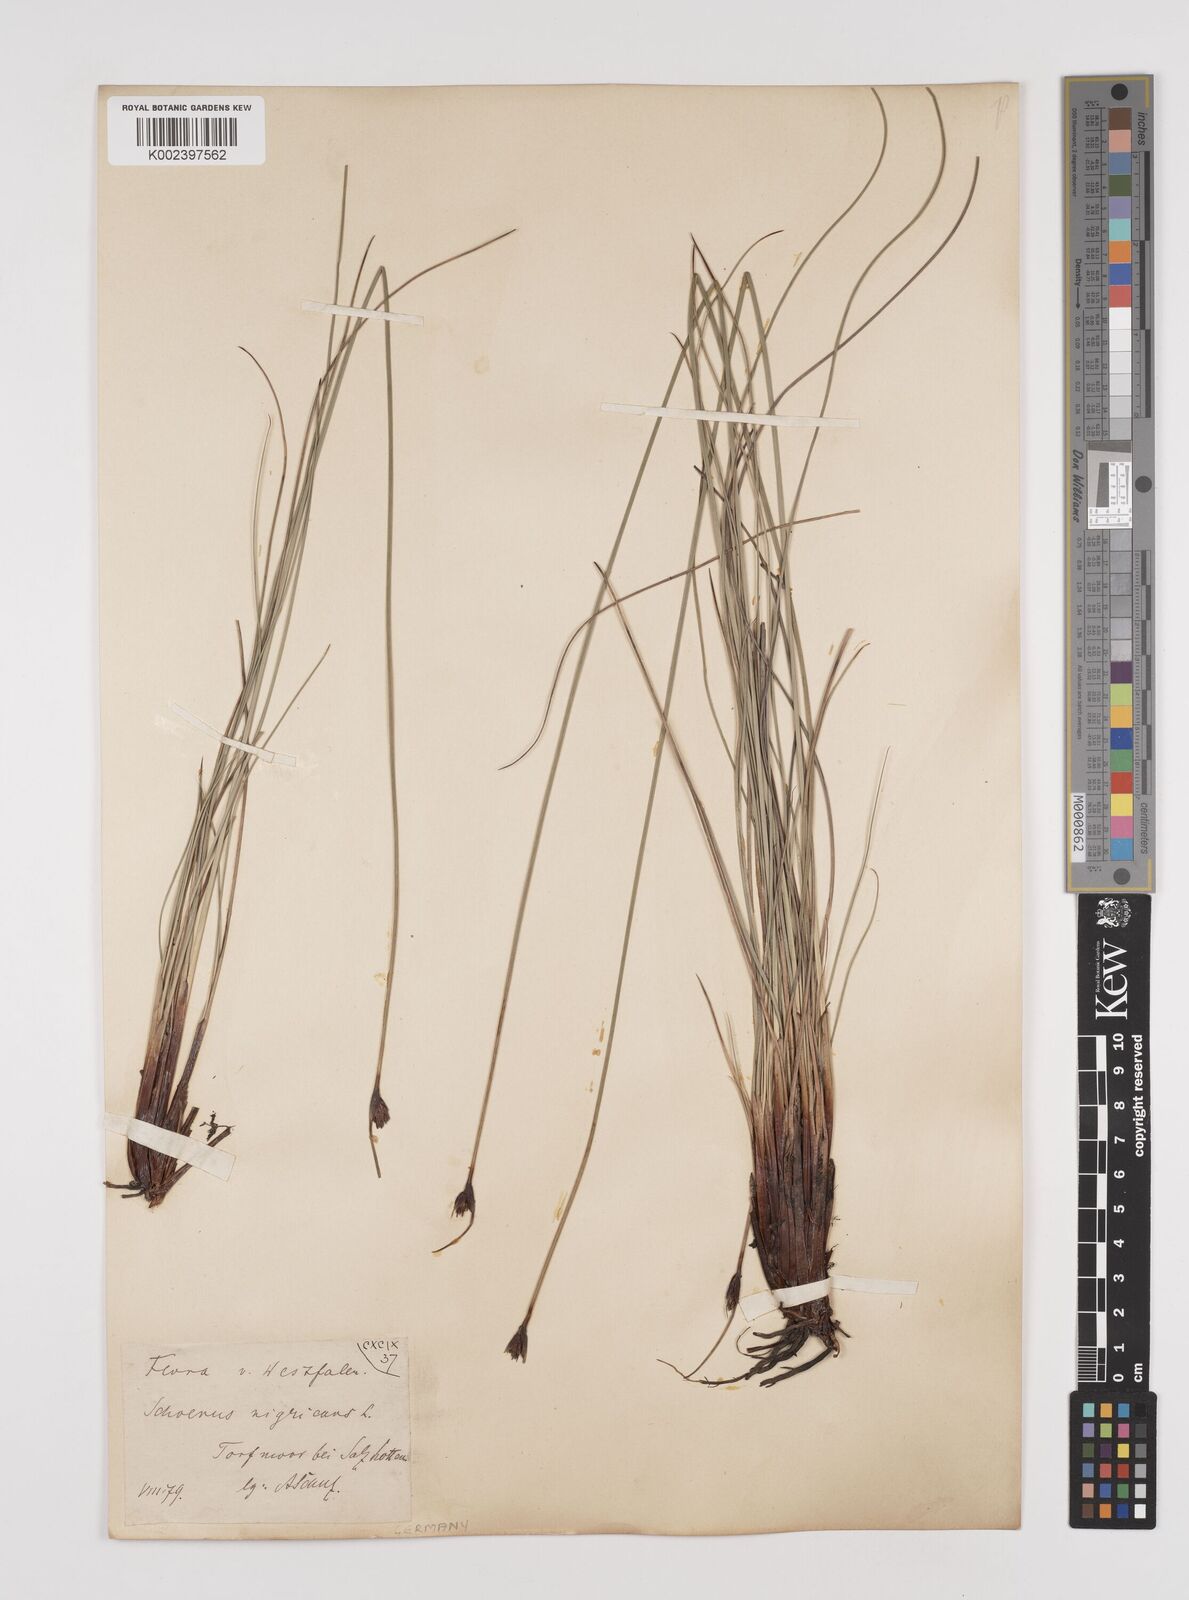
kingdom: Plantae
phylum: Tracheophyta
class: Liliopsida
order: Poales
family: Cyperaceae
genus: Schoenus
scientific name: Schoenus nigricans
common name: Black bog-rush
